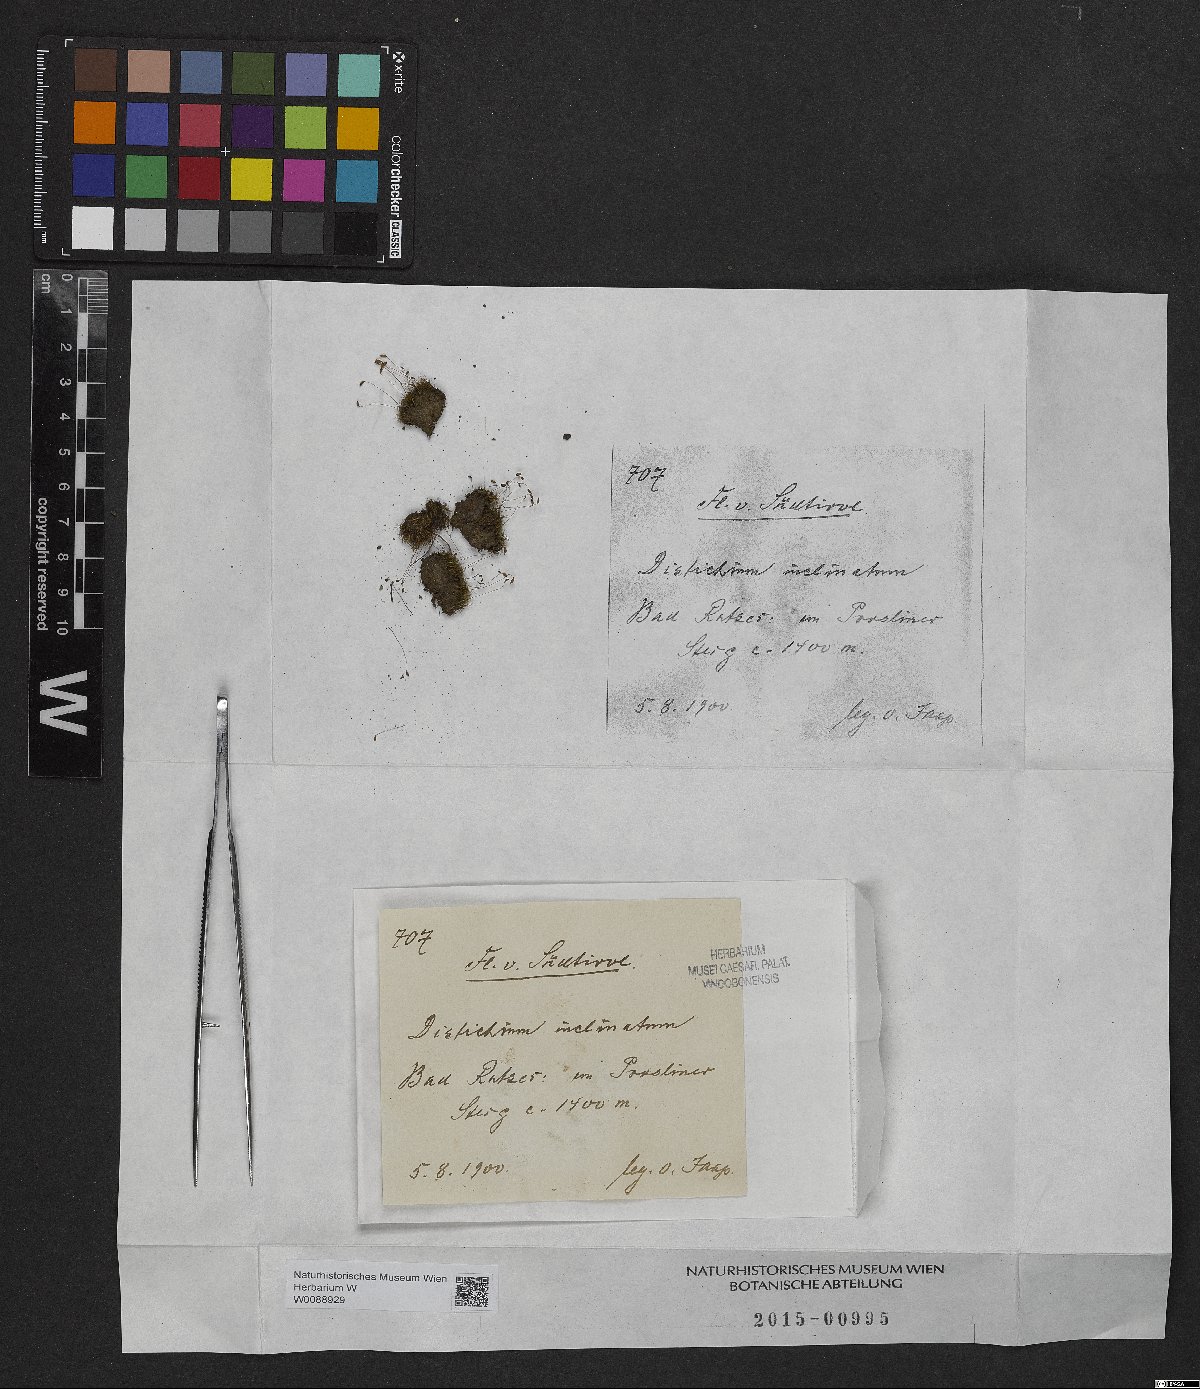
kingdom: Plantae
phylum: Bryophyta
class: Bryopsida
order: Scouleriales
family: Distichiaceae
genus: Distichium
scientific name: Distichium inclinatum
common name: Inclined iris moss
